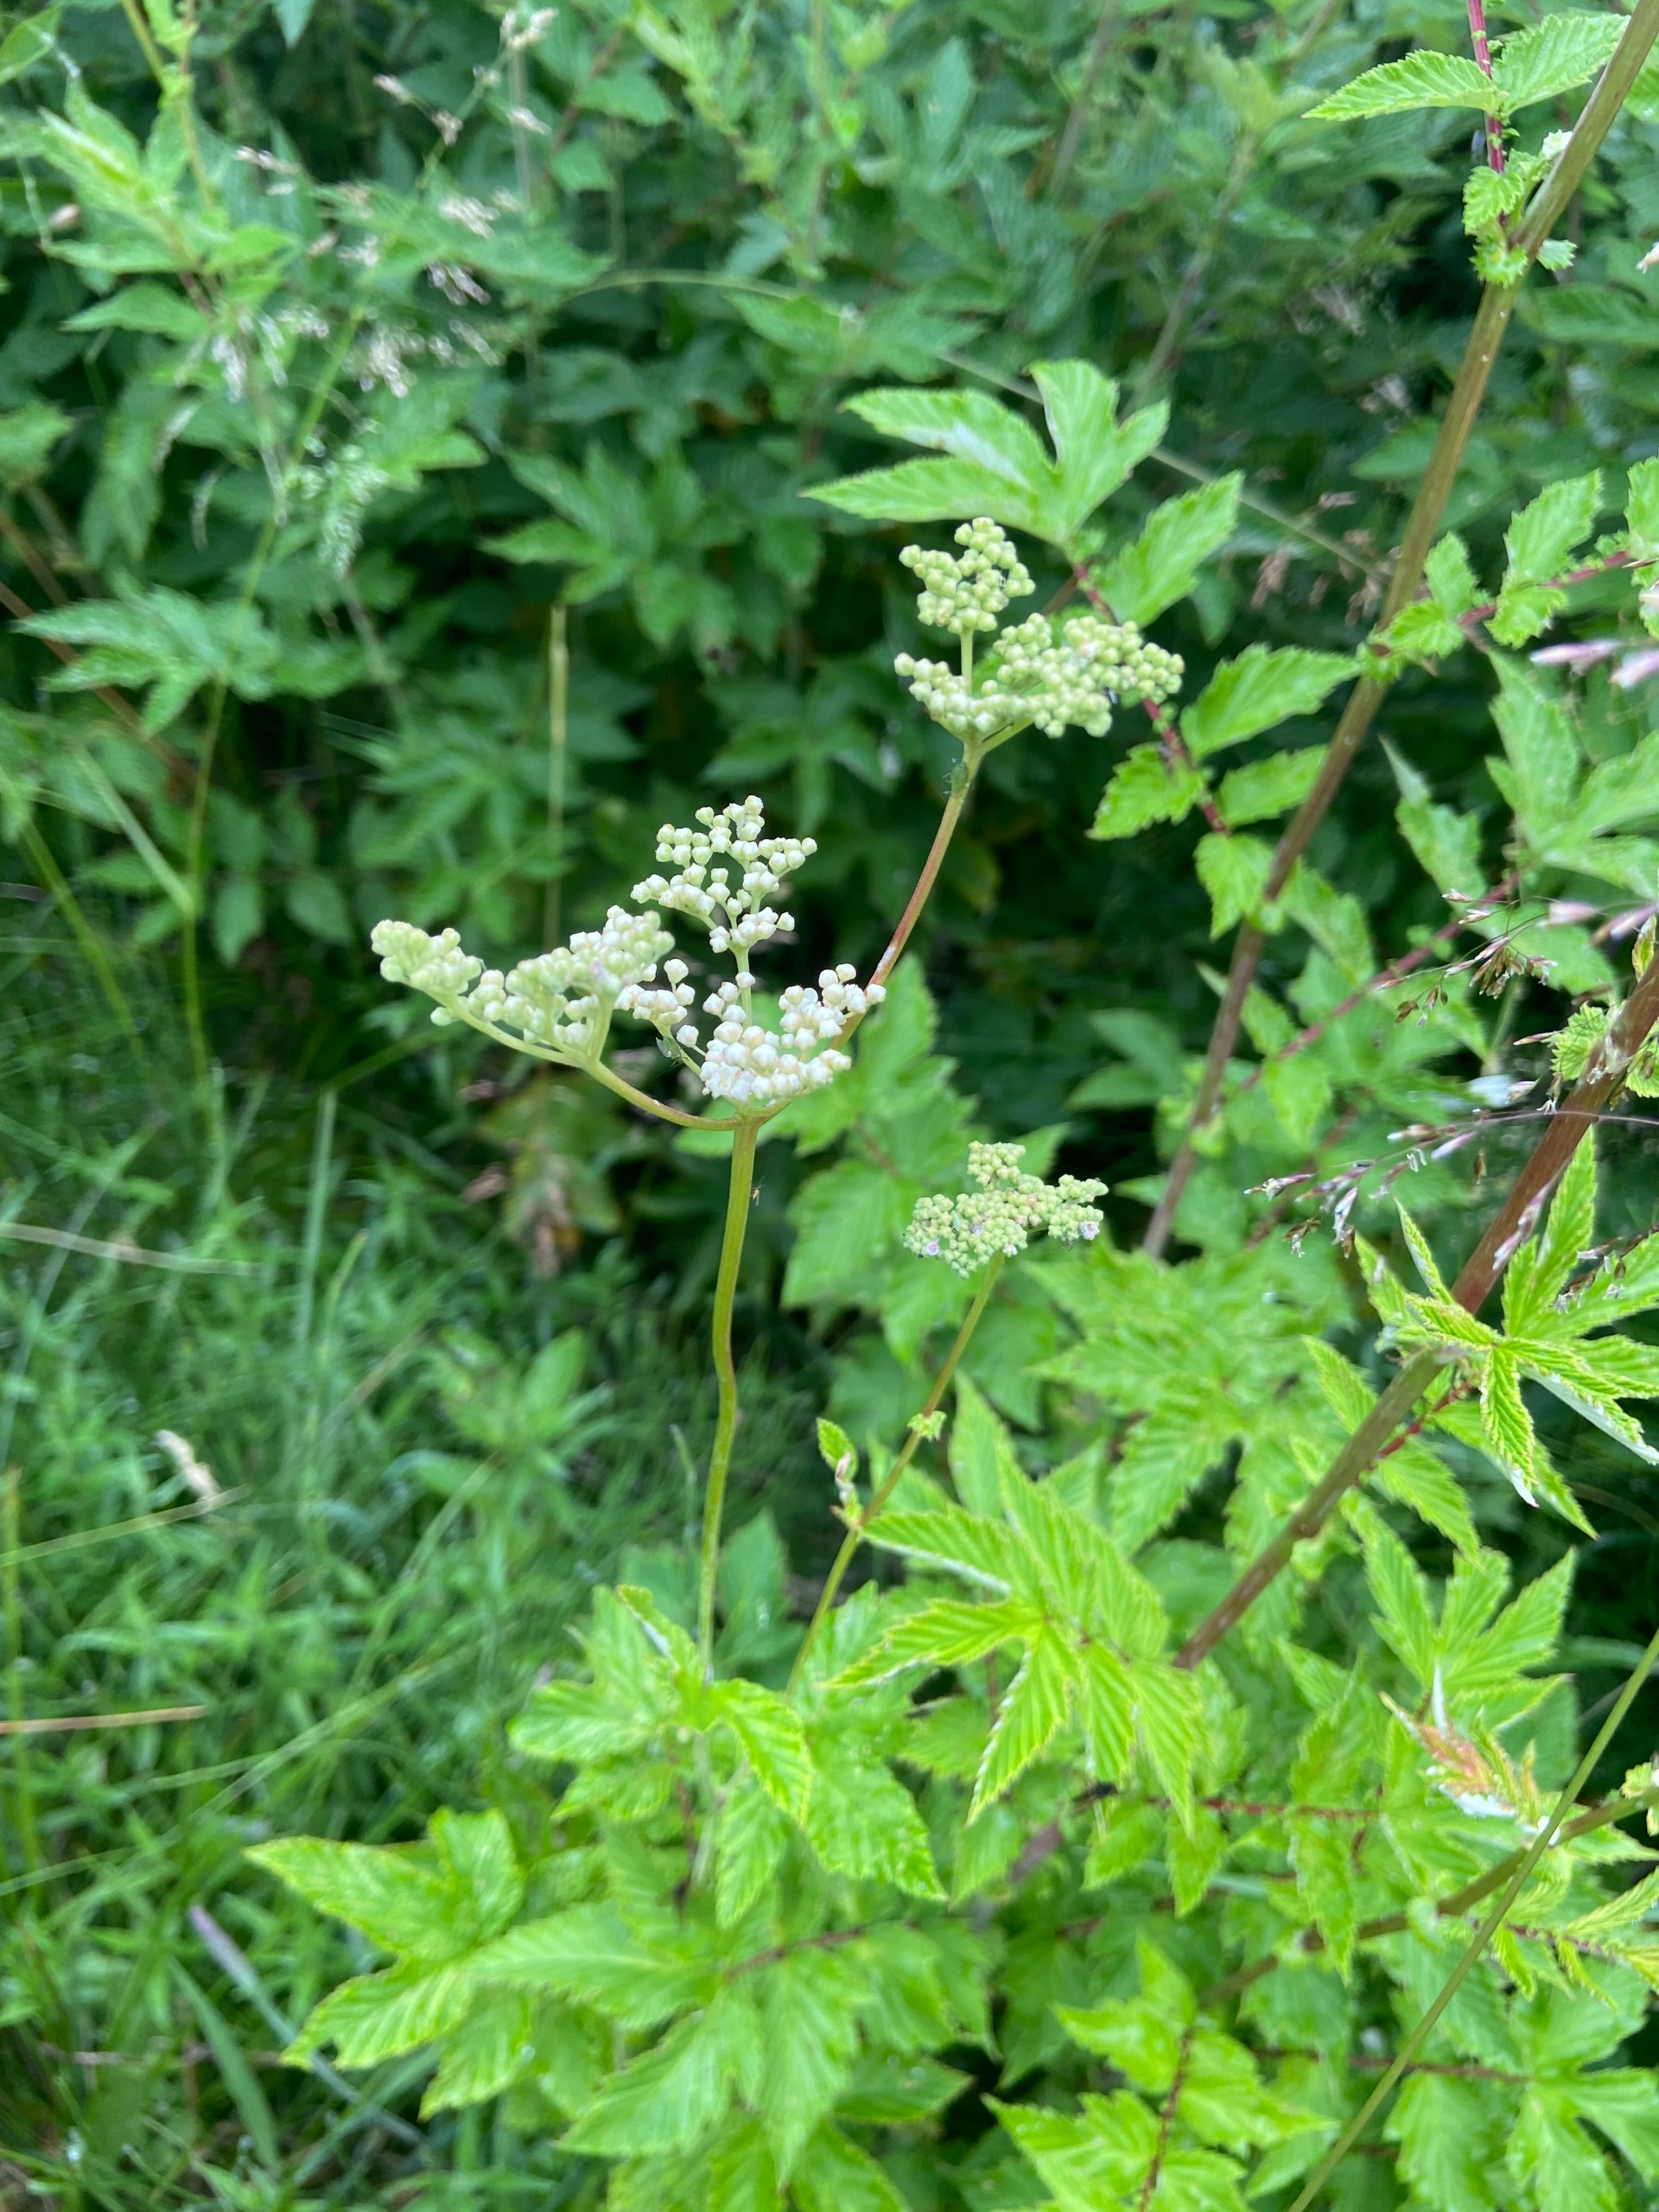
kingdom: Plantae
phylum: Tracheophyta
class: Magnoliopsida
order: Rosales
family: Rosaceae
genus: Filipendula
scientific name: Filipendula ulmaria
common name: Almindelig mjødurt
